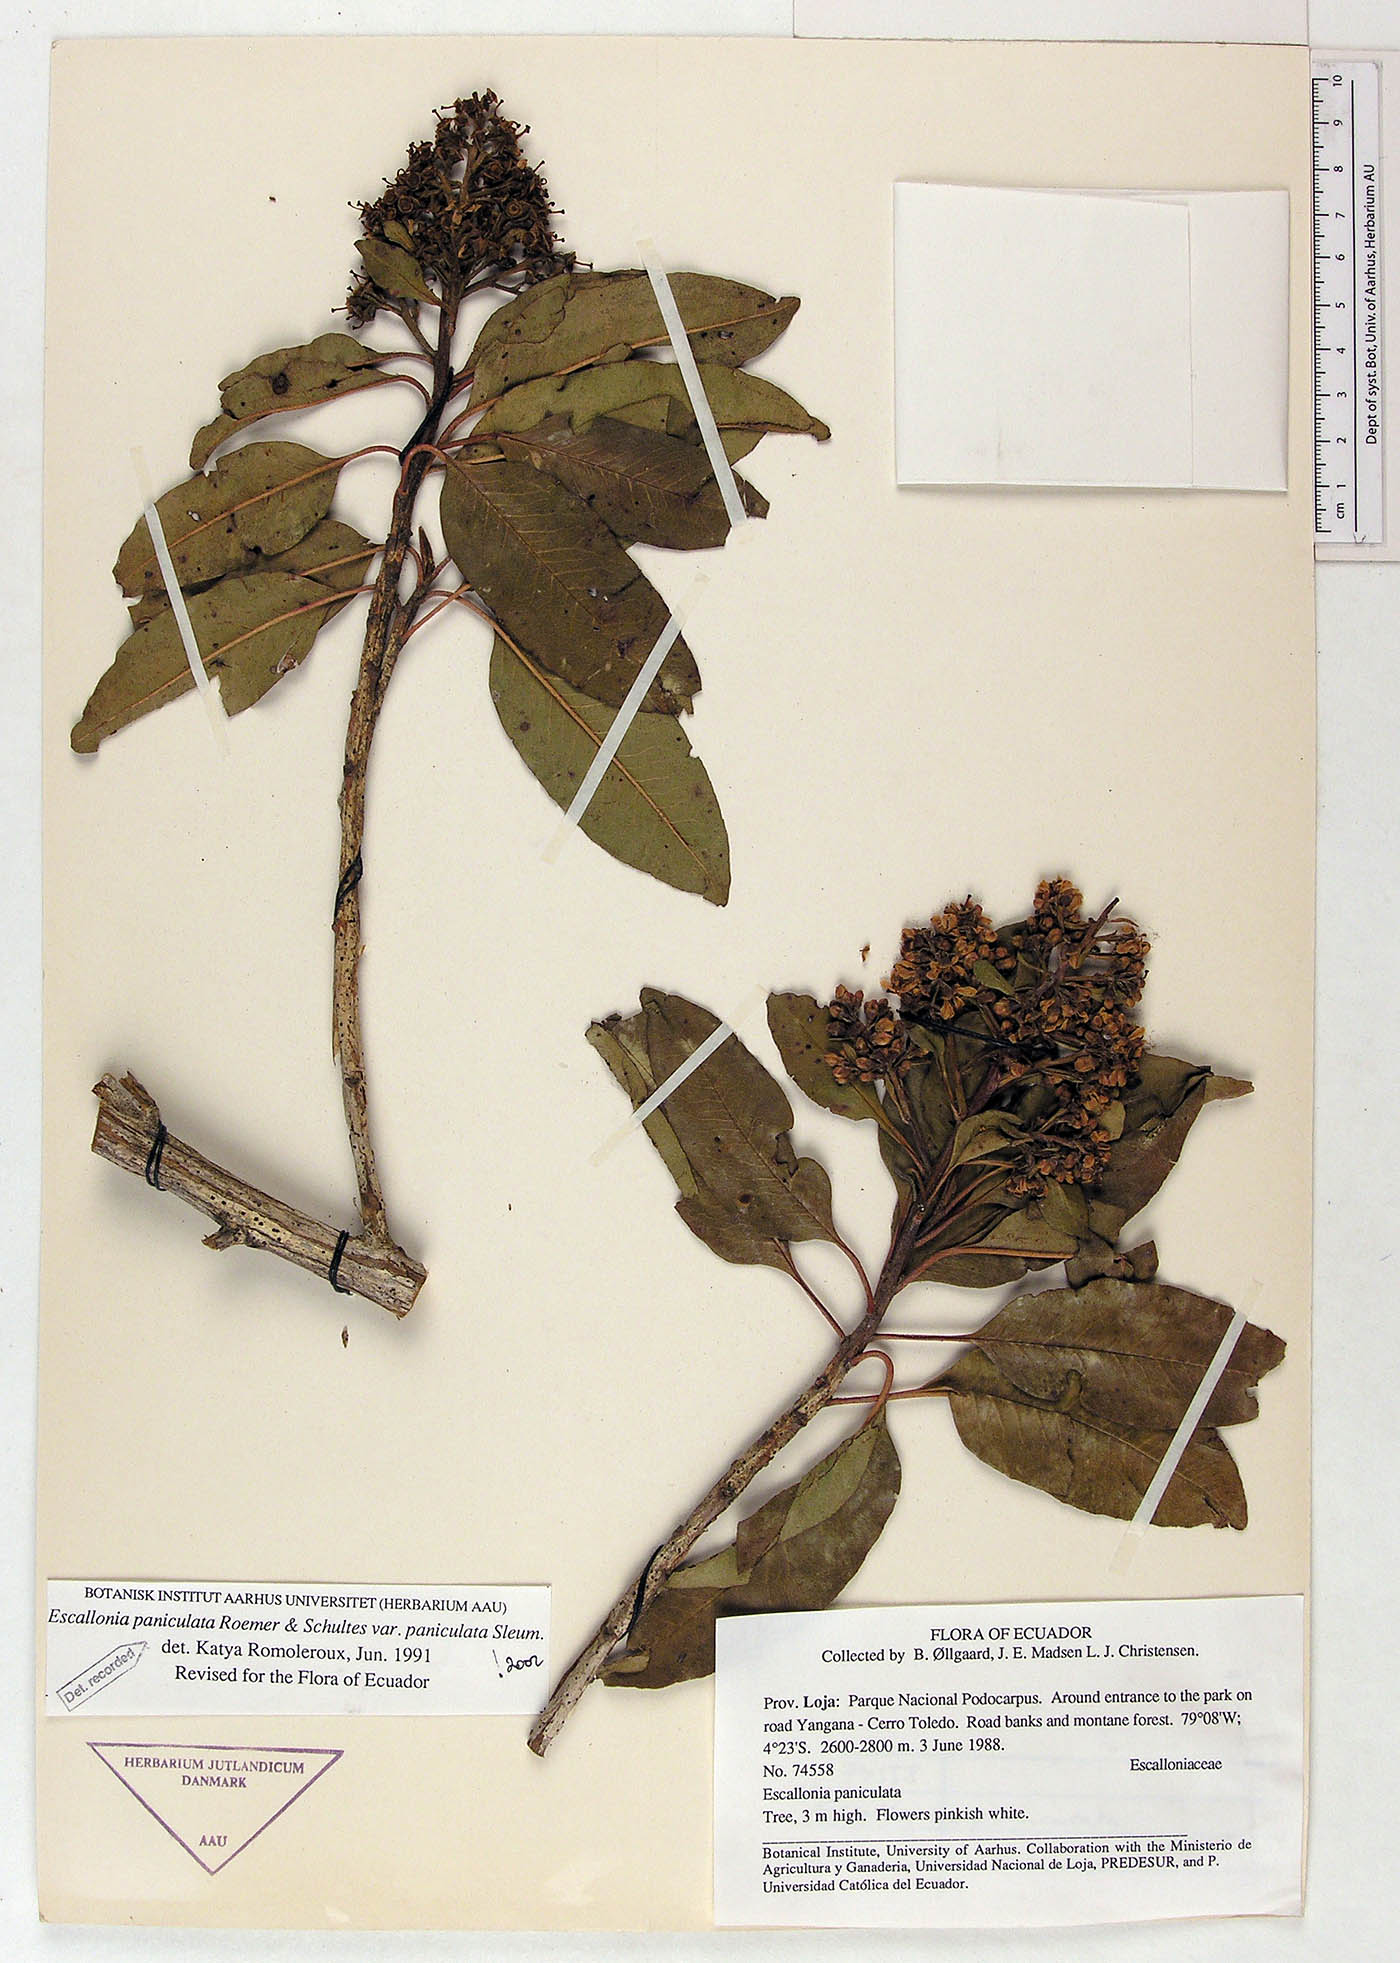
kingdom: Plantae
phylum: Tracheophyta
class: Magnoliopsida
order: Escalloniales
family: Escalloniaceae
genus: Escallonia
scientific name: Escallonia paniculata
